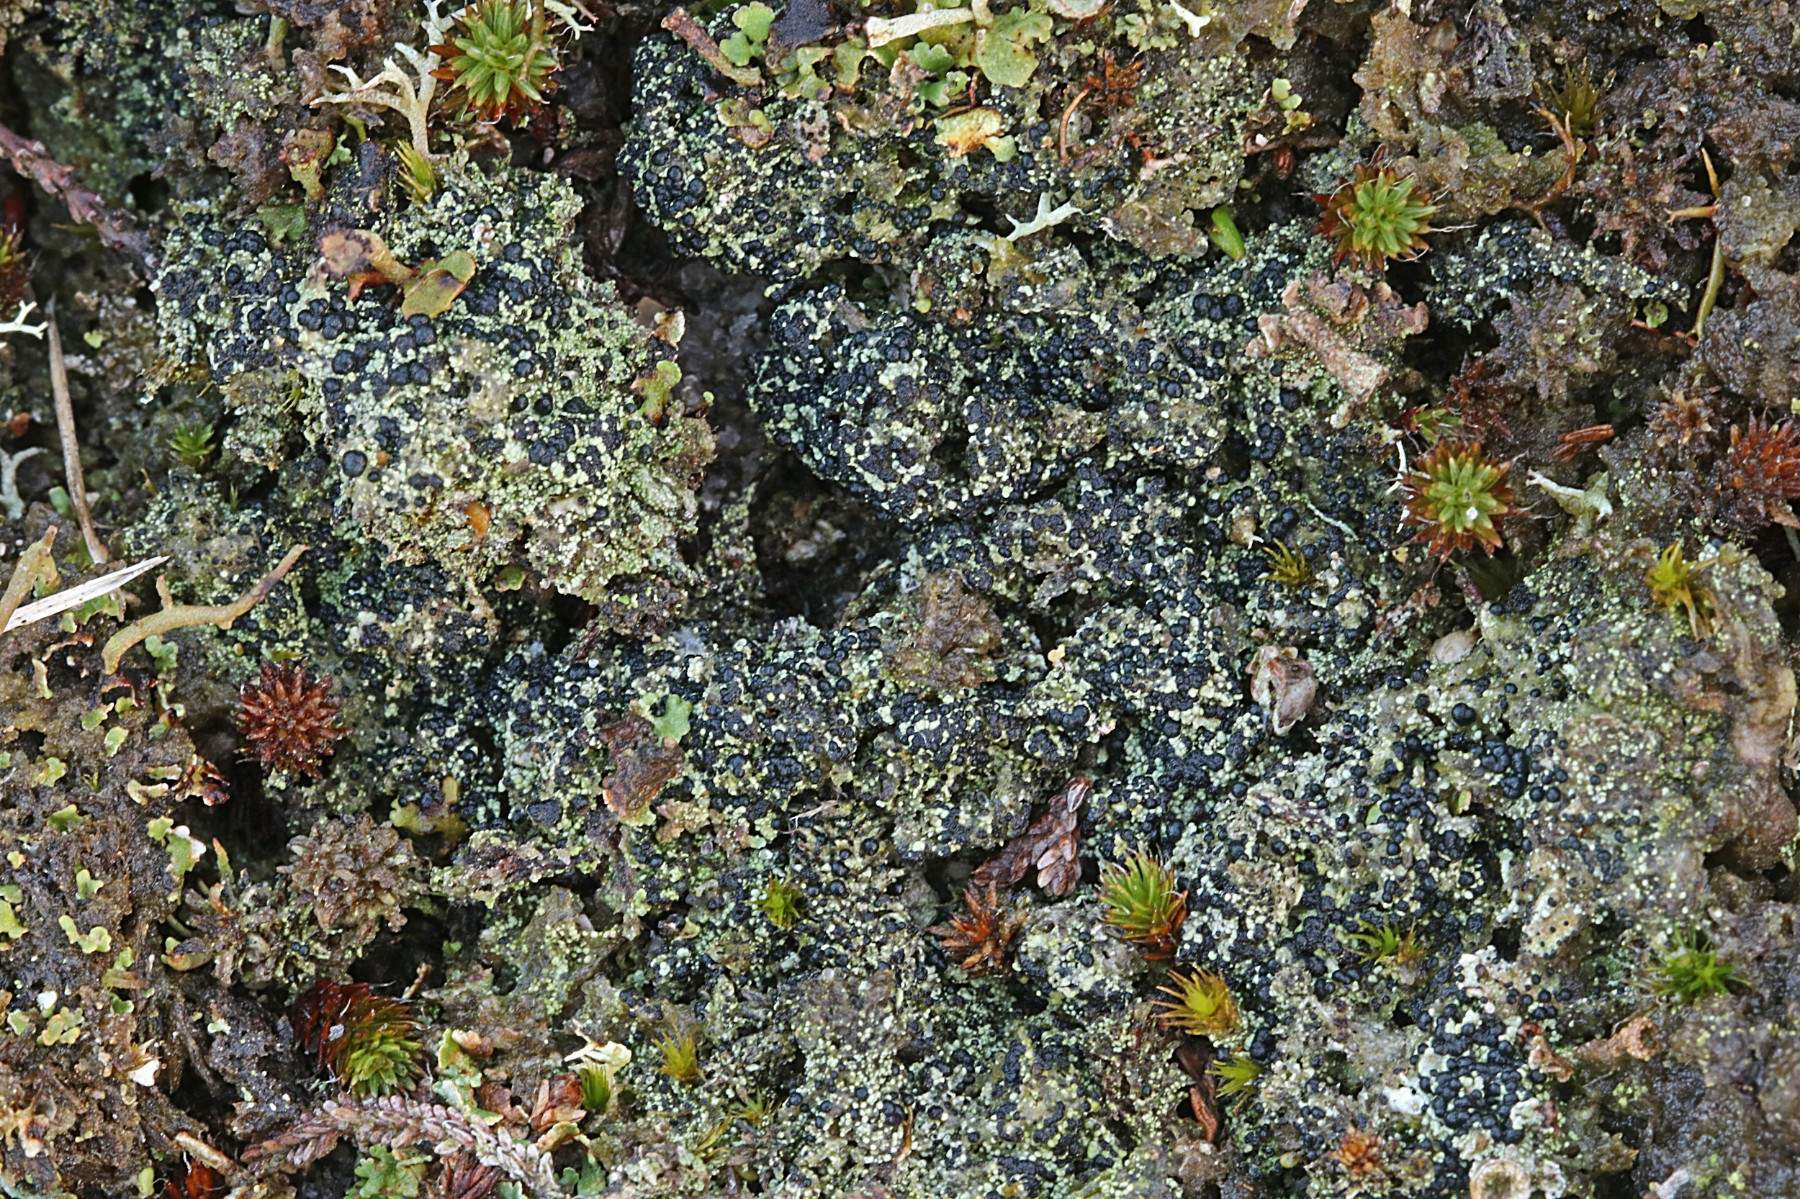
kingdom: Fungi
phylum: Ascomycota
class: Lecanoromycetes
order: Lecanorales
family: Byssolomataceae
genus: Micarea
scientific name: Micarea lignaria
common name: tørve-knaplav
